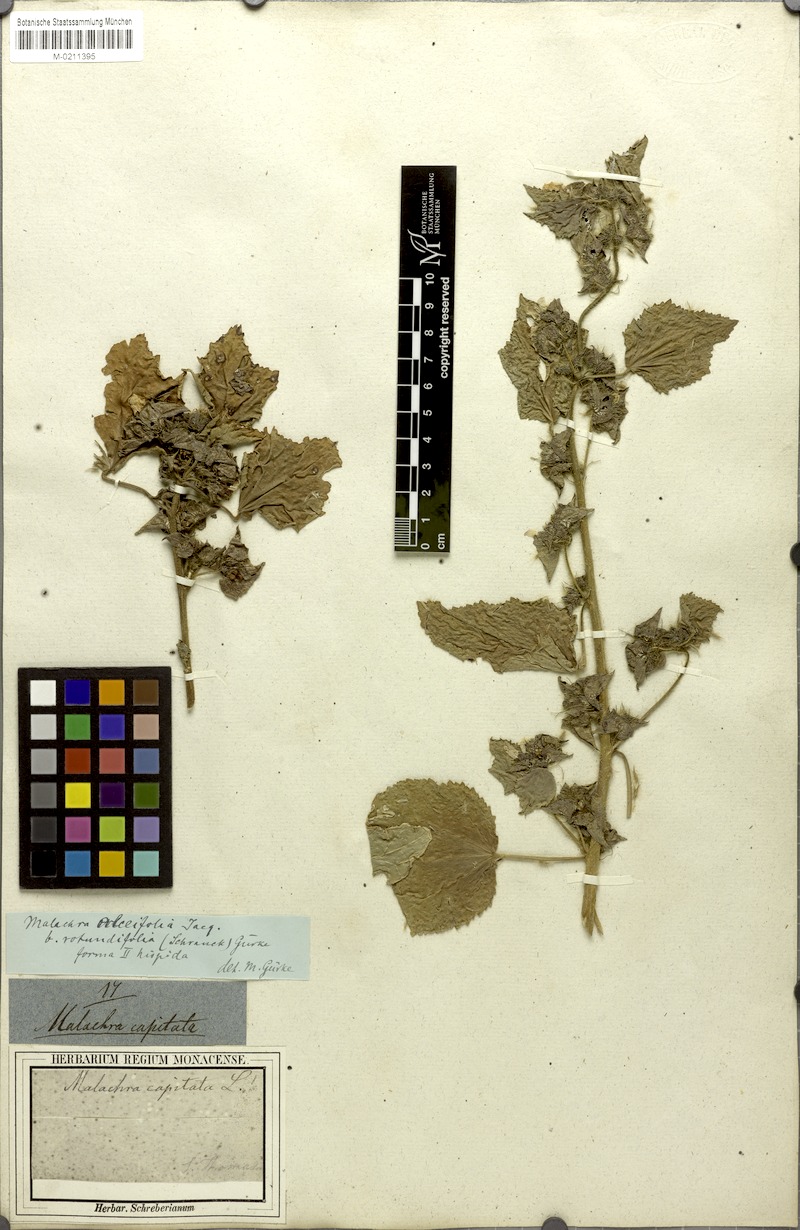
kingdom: Plantae
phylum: Tracheophyta
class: Magnoliopsida
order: Malvales
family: Malvaceae
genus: Malachra
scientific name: Malachra alceifolia
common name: Yellow leafbract
